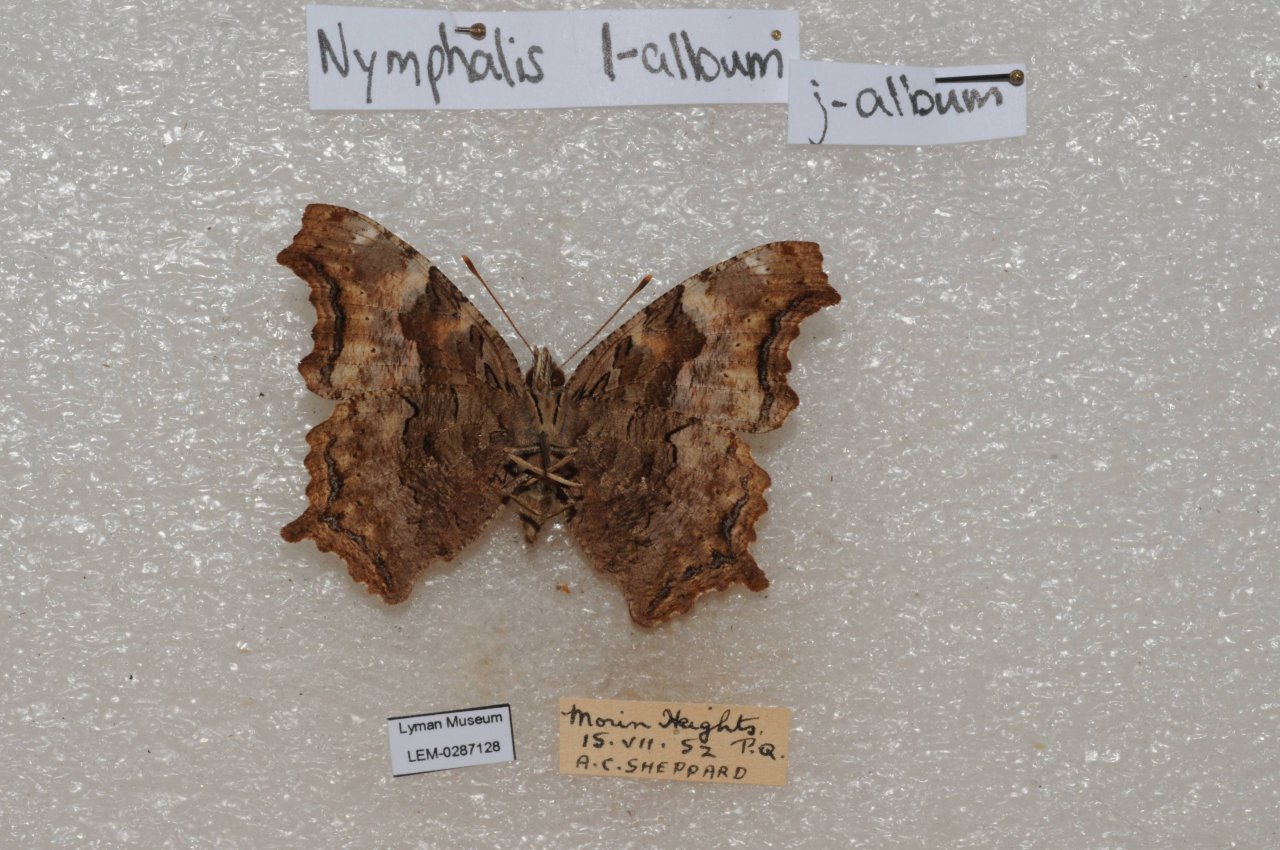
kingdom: Animalia
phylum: Arthropoda
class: Insecta
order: Lepidoptera
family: Nymphalidae
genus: Polygonia
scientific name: Polygonia vaualbum
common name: Compton Tortoiseshell
